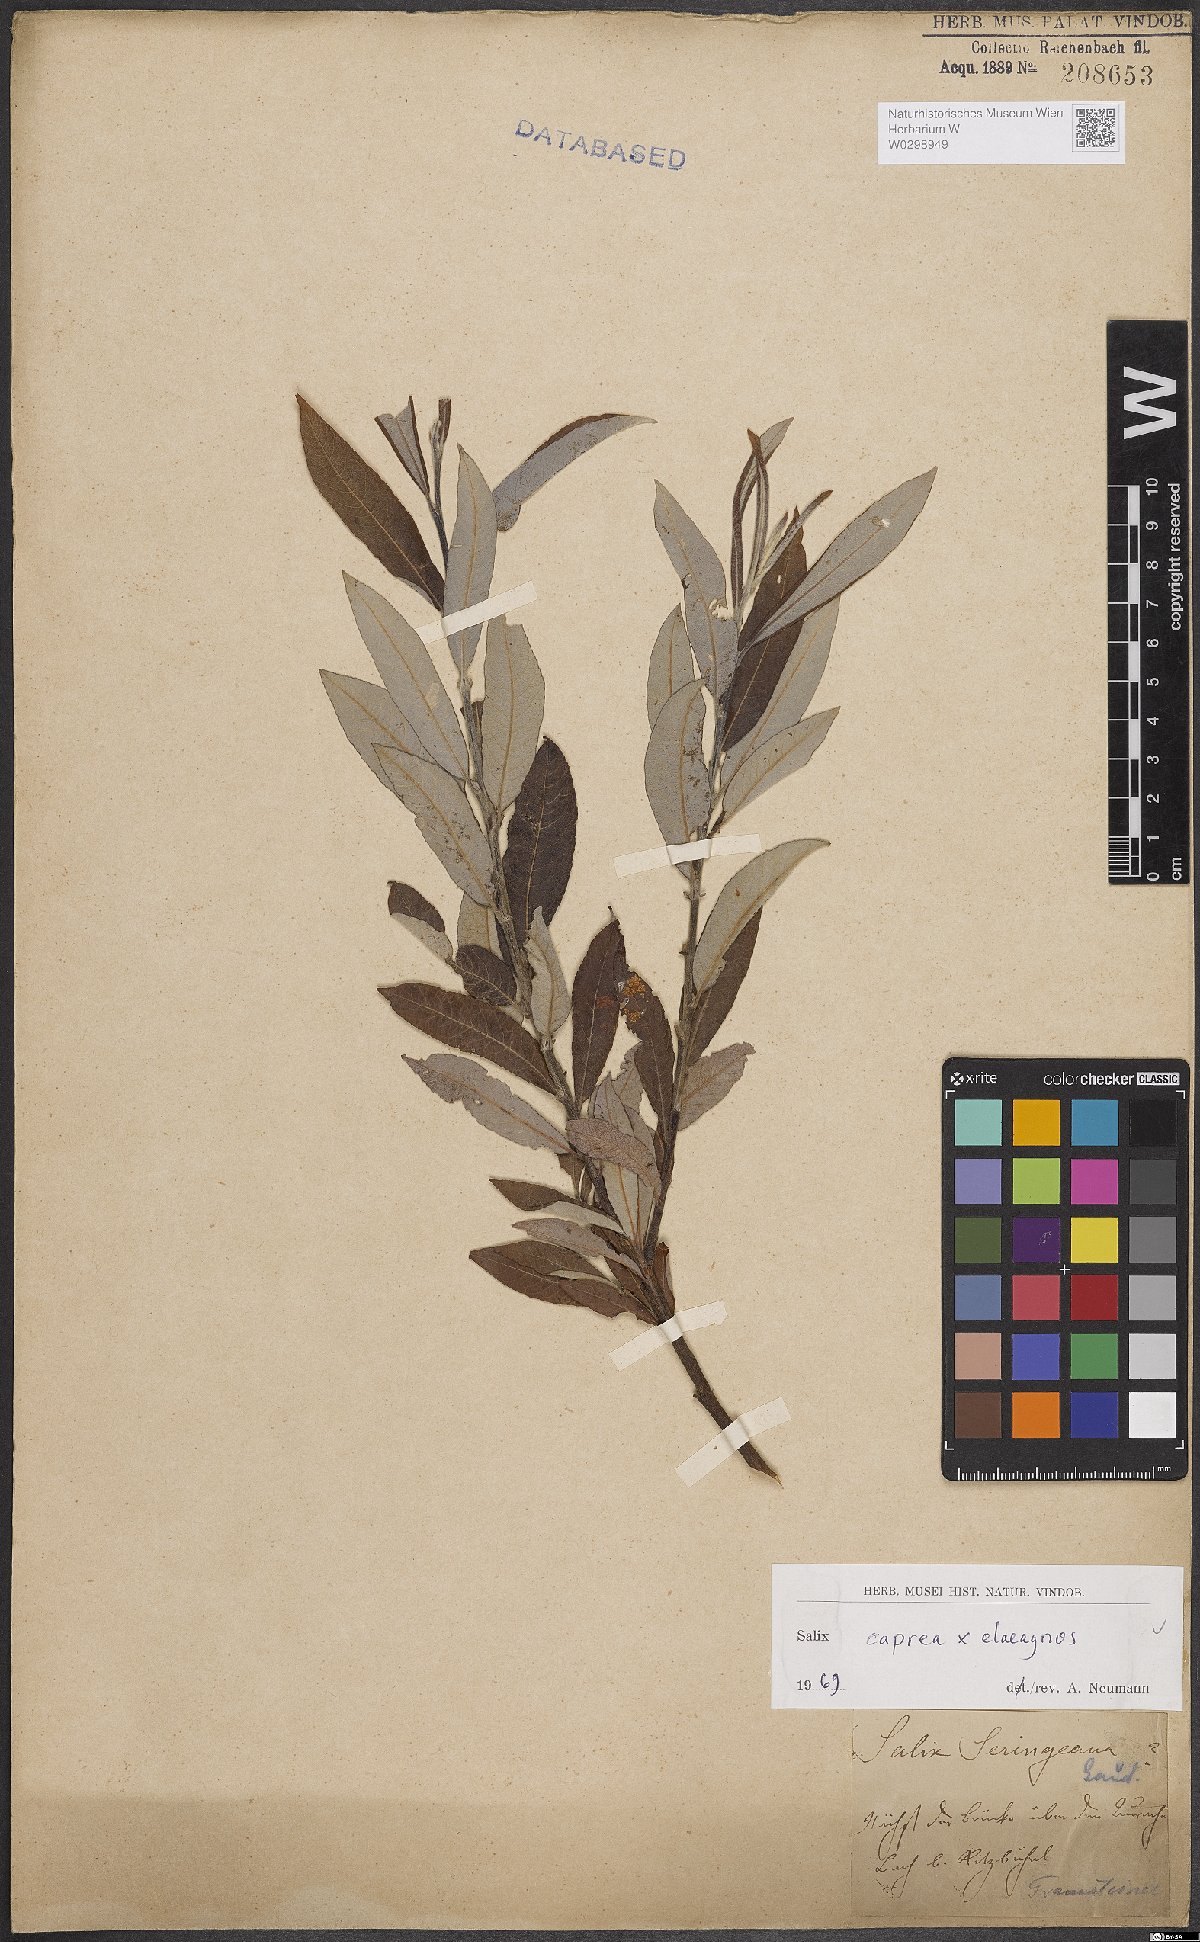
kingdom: Plantae
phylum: Tracheophyta
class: Magnoliopsida
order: Malpighiales
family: Salicaceae
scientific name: Salicaceae
